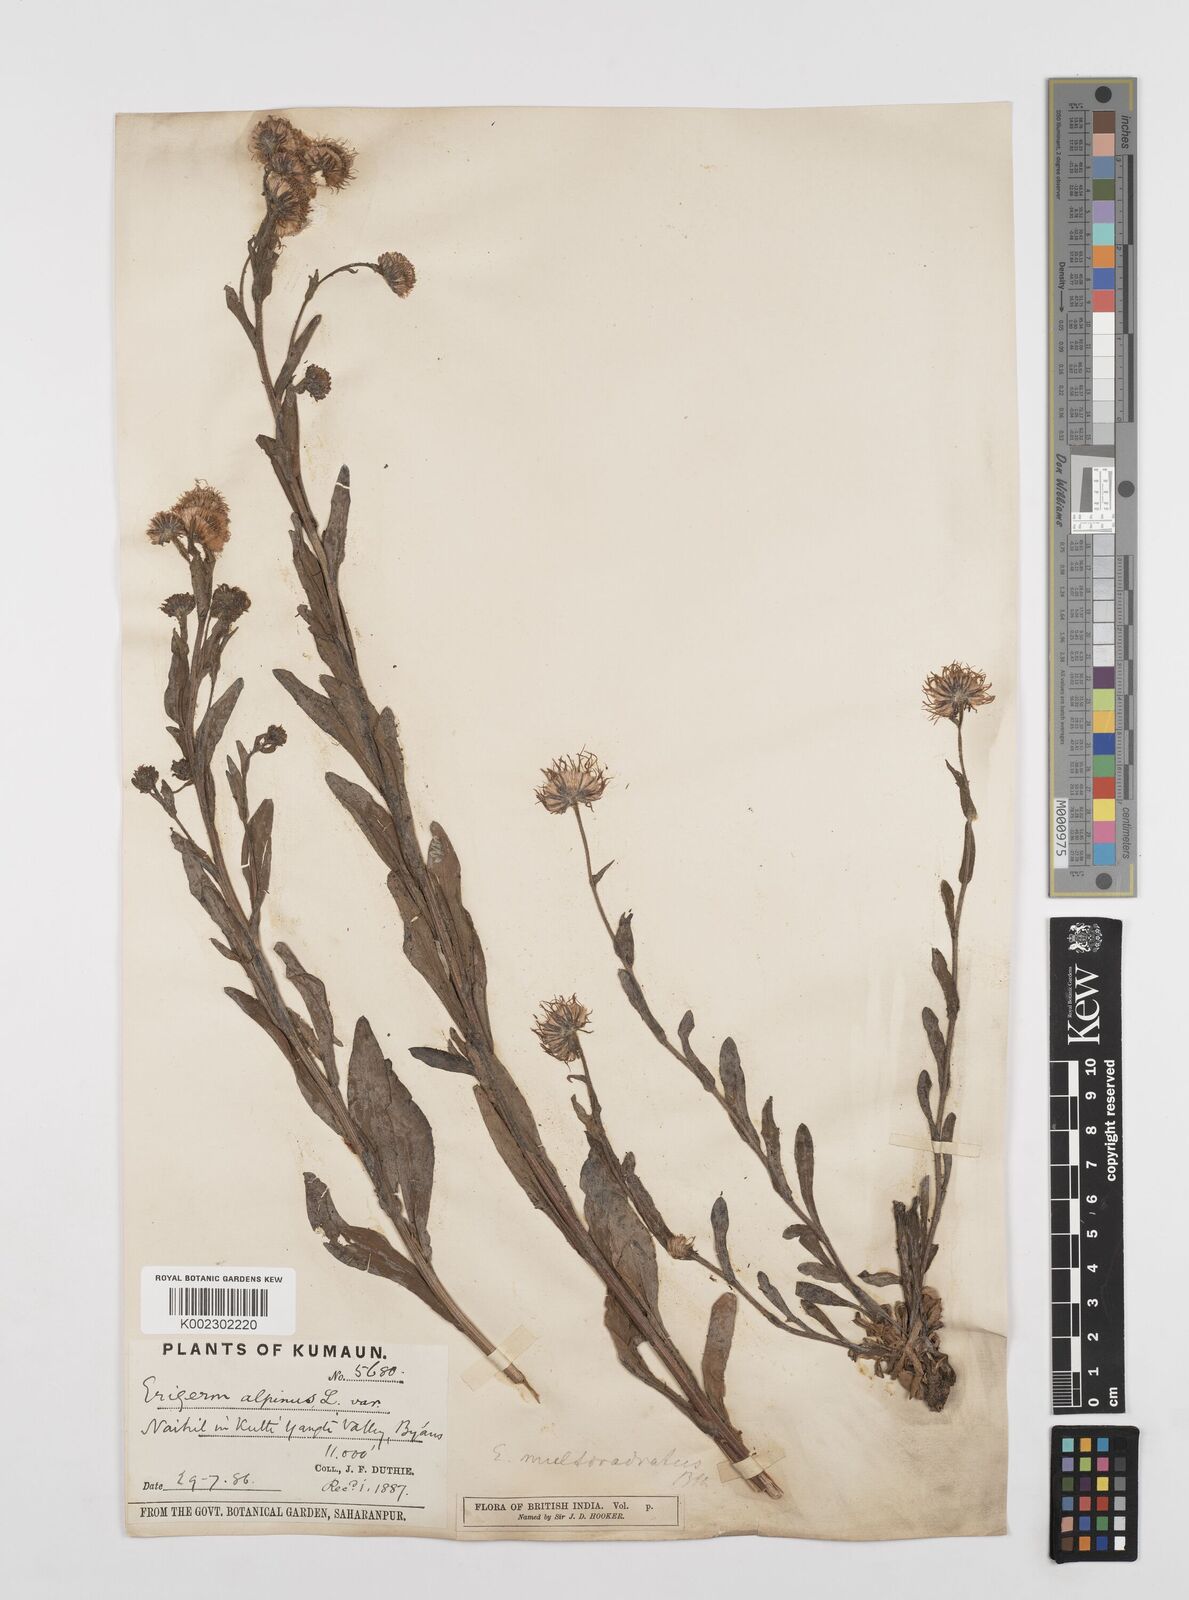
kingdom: Plantae
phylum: Tracheophyta
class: Magnoliopsida
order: Asterales
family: Asteraceae
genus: Erigeron
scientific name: Erigeron acris
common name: Blue fleabane
